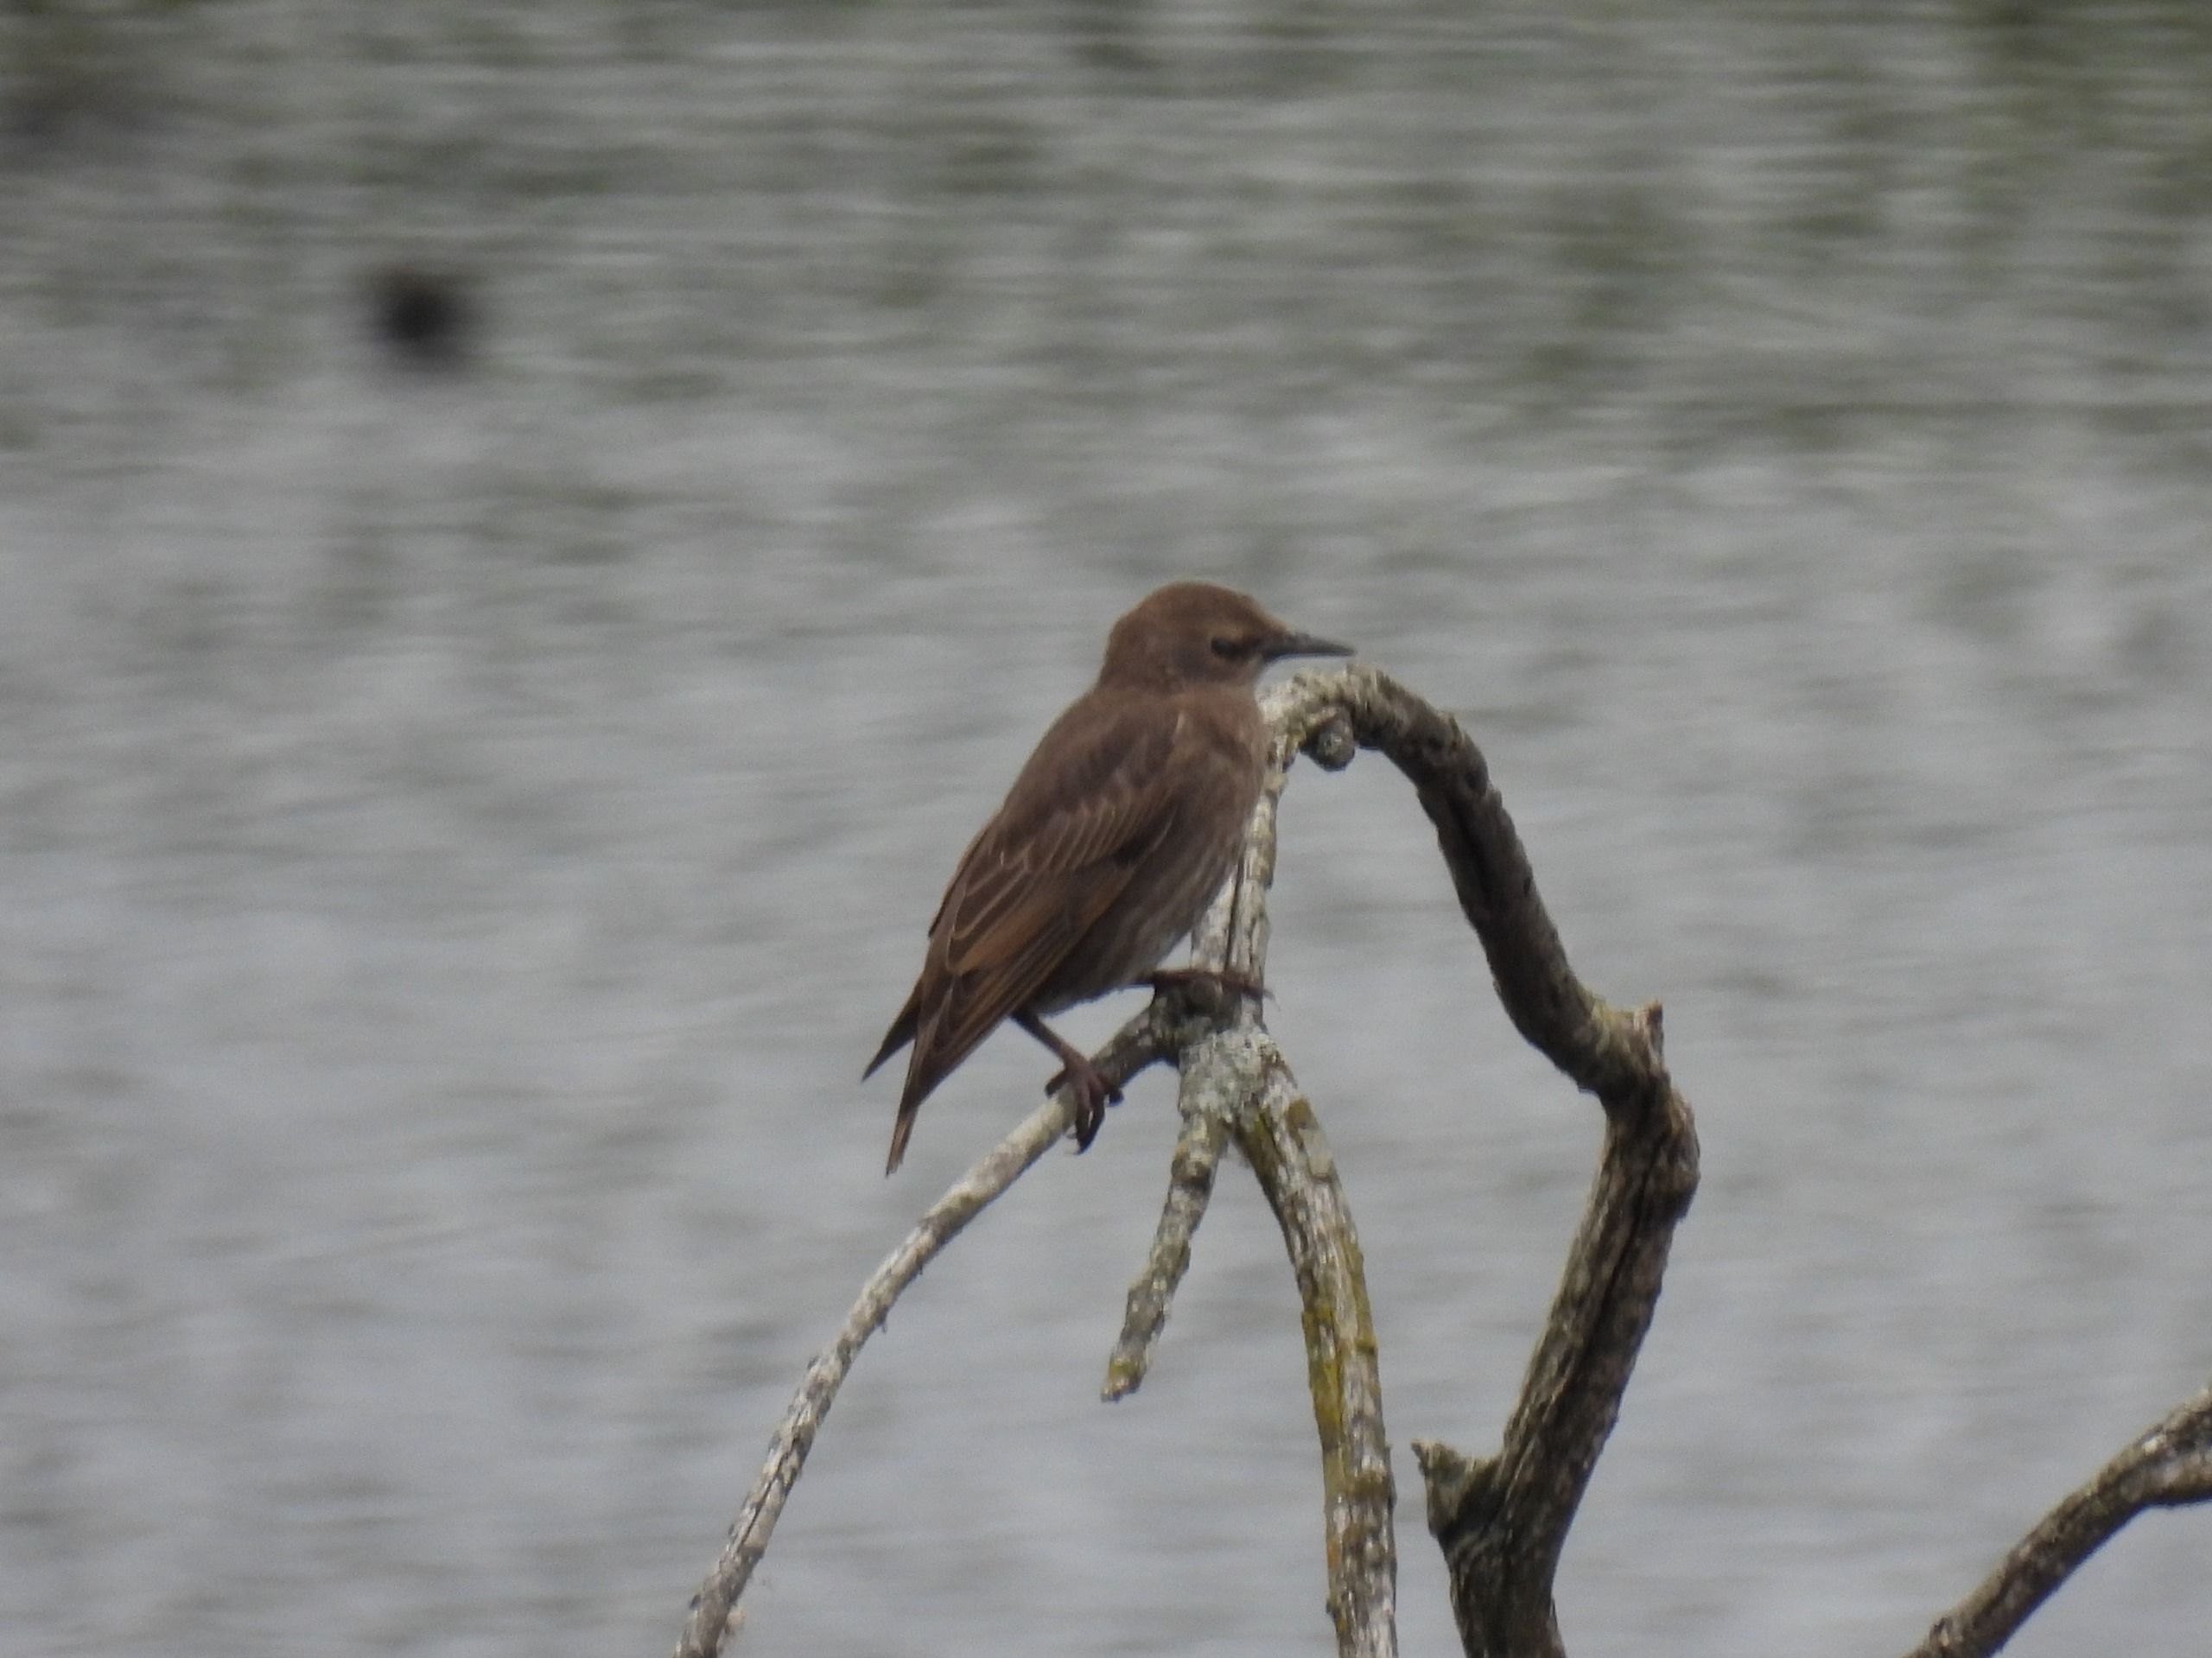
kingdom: Animalia
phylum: Chordata
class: Aves
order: Passeriformes
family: Sturnidae
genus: Sturnus
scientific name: Sturnus vulgaris
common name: Stær
